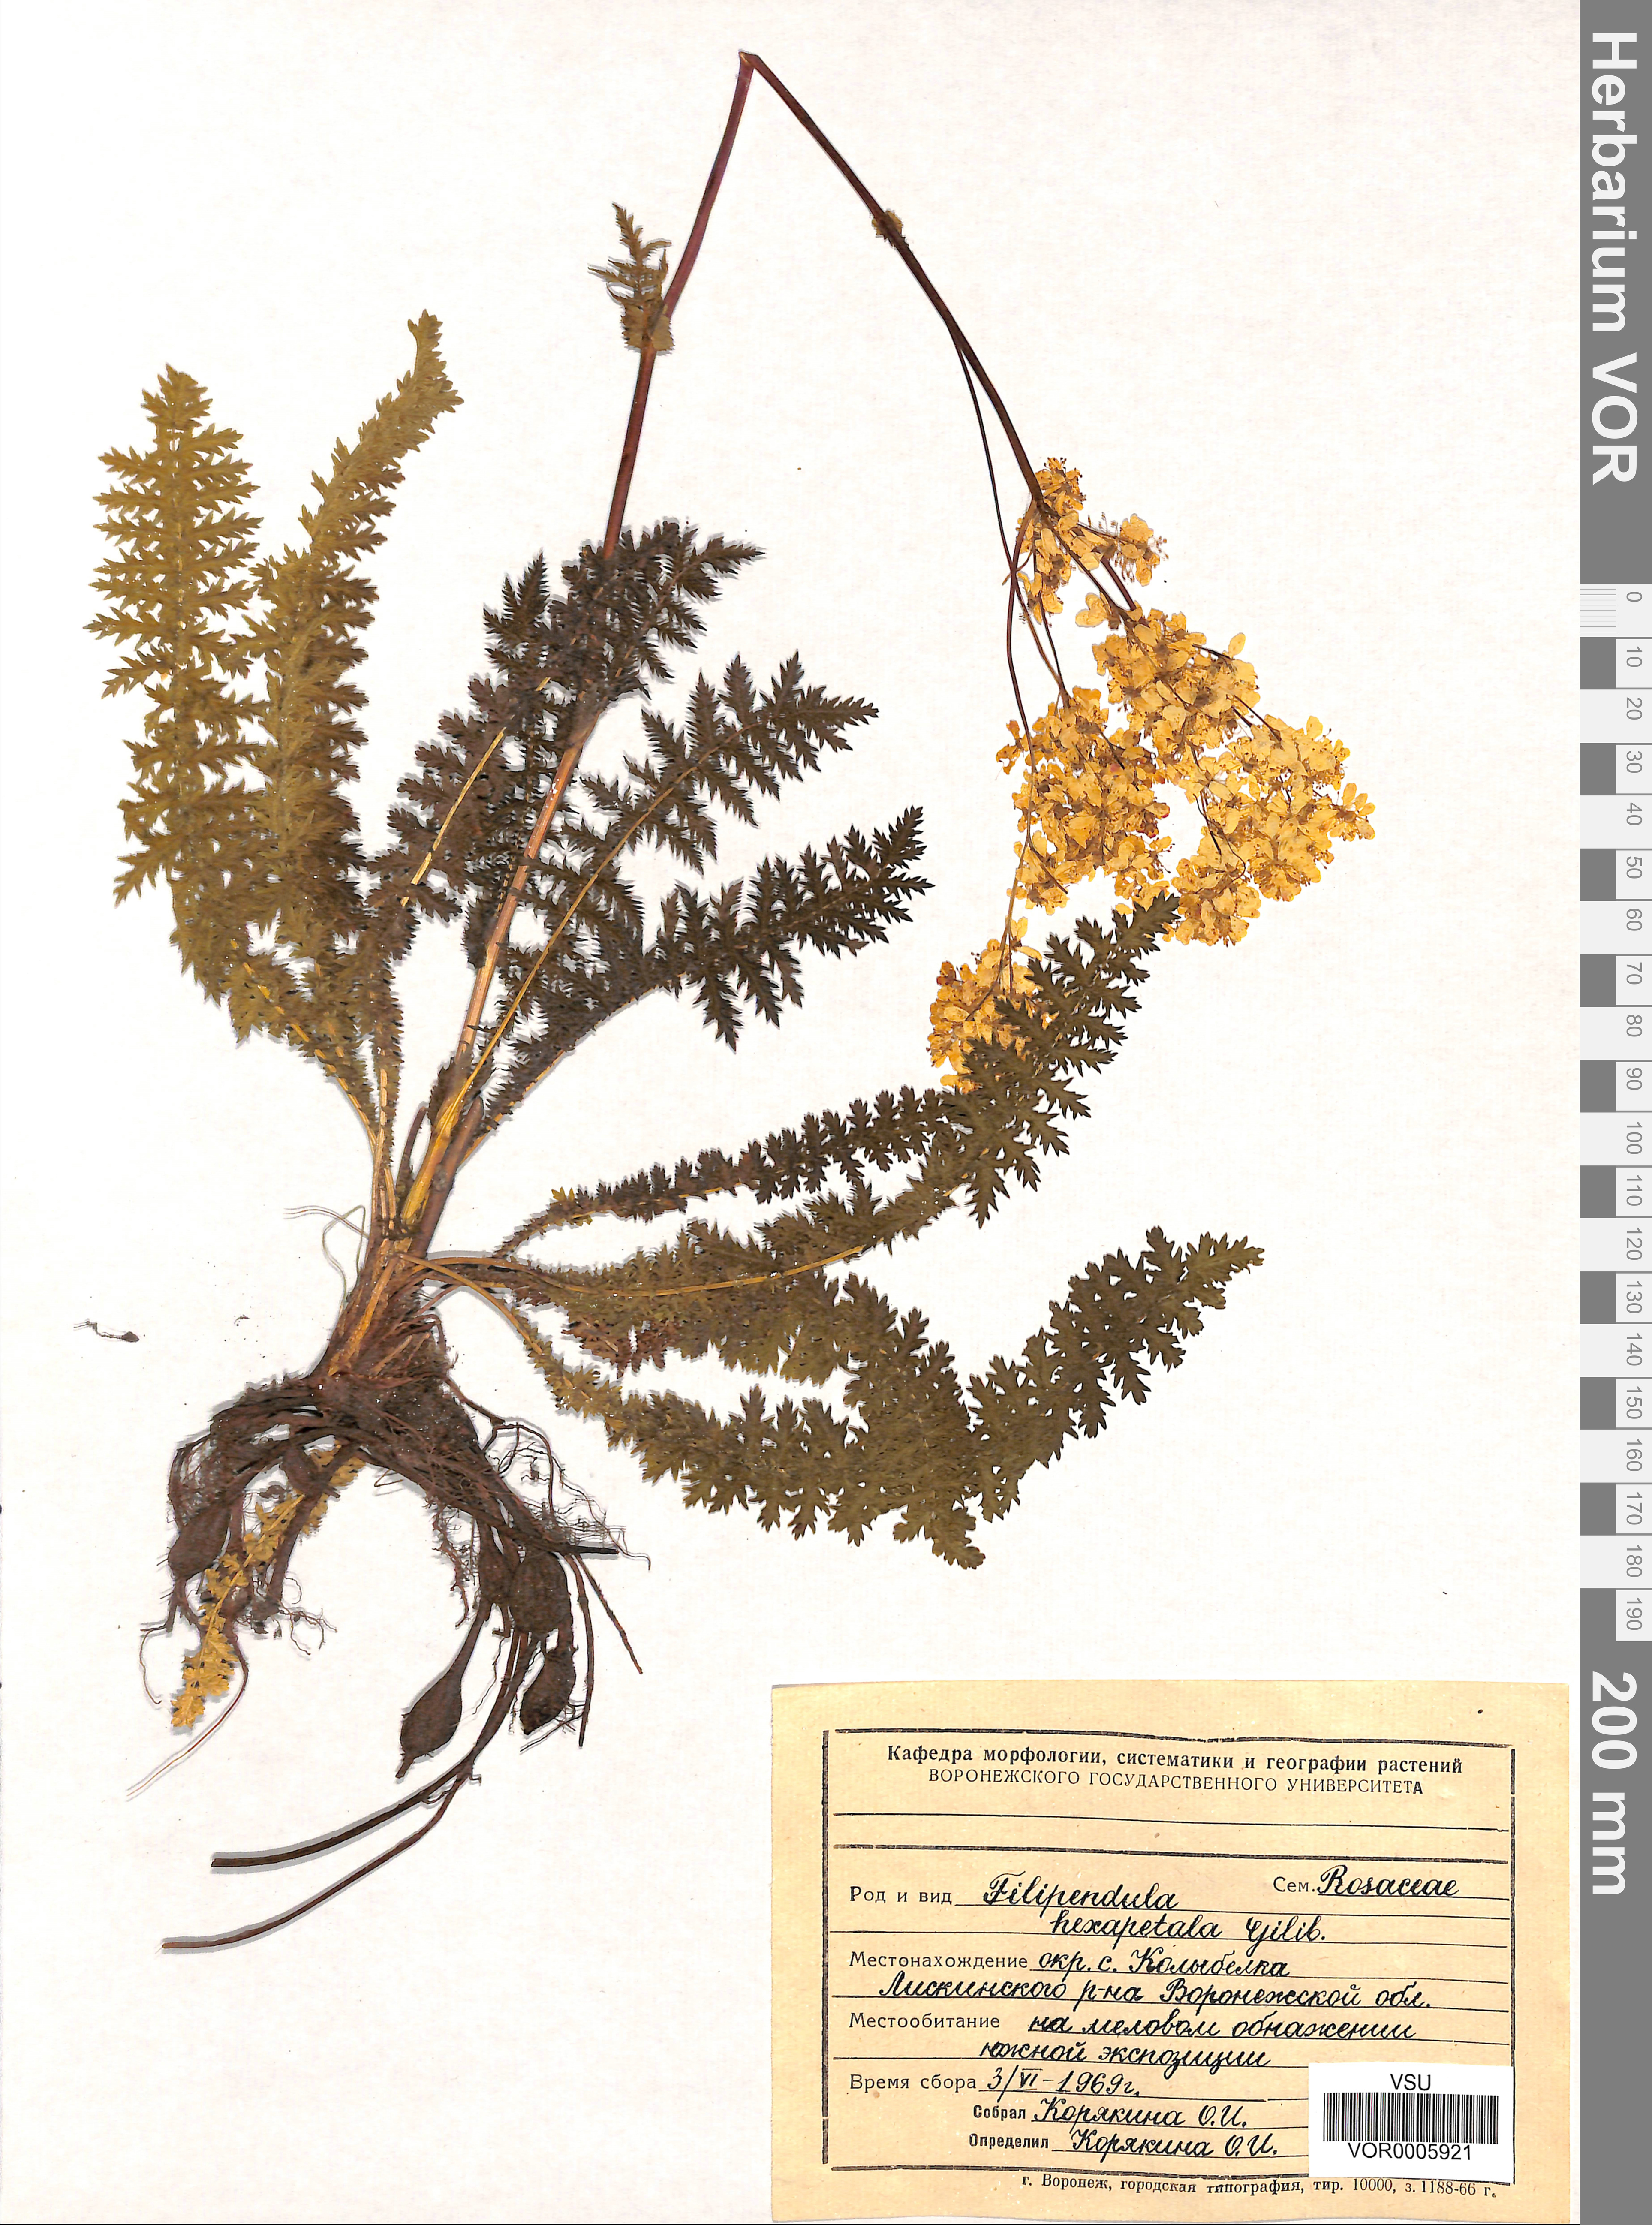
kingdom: Plantae
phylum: Tracheophyta
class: Magnoliopsida
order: Rosales
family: Rosaceae
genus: Filipendula
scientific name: Filipendula vulgaris
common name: Dropwort
